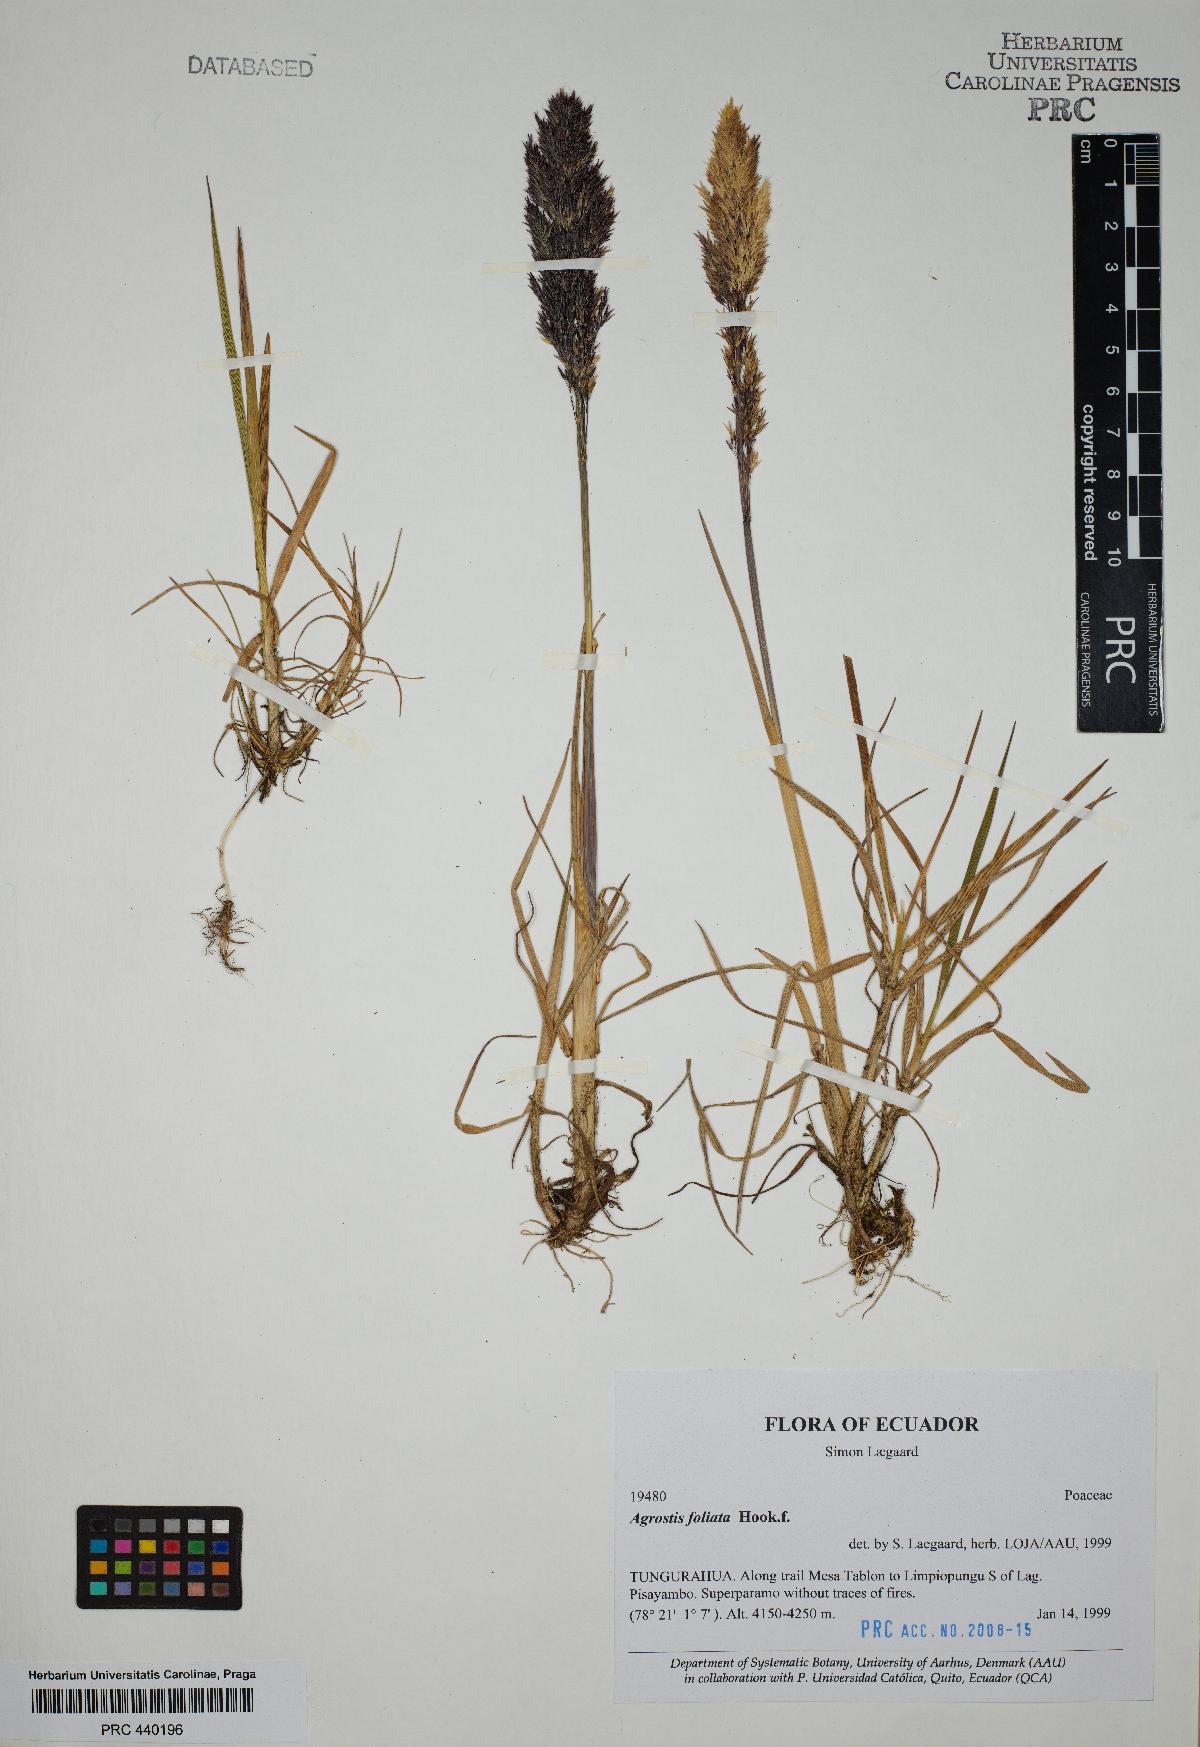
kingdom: Plantae
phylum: Tracheophyta
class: Liliopsida
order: Poales
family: Poaceae
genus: Agrostis
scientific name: Agrostis foliata
